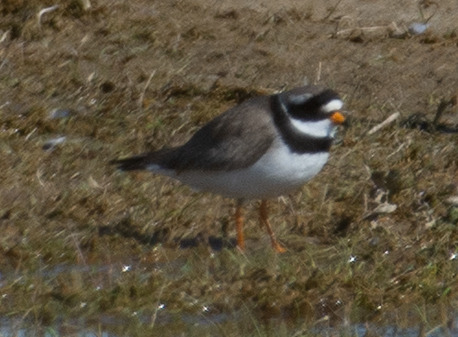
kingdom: Animalia
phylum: Chordata
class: Aves
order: Charadriiformes
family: Charadriidae
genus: Charadrius
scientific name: Charadrius hiaticula
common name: Stor præstekrave
